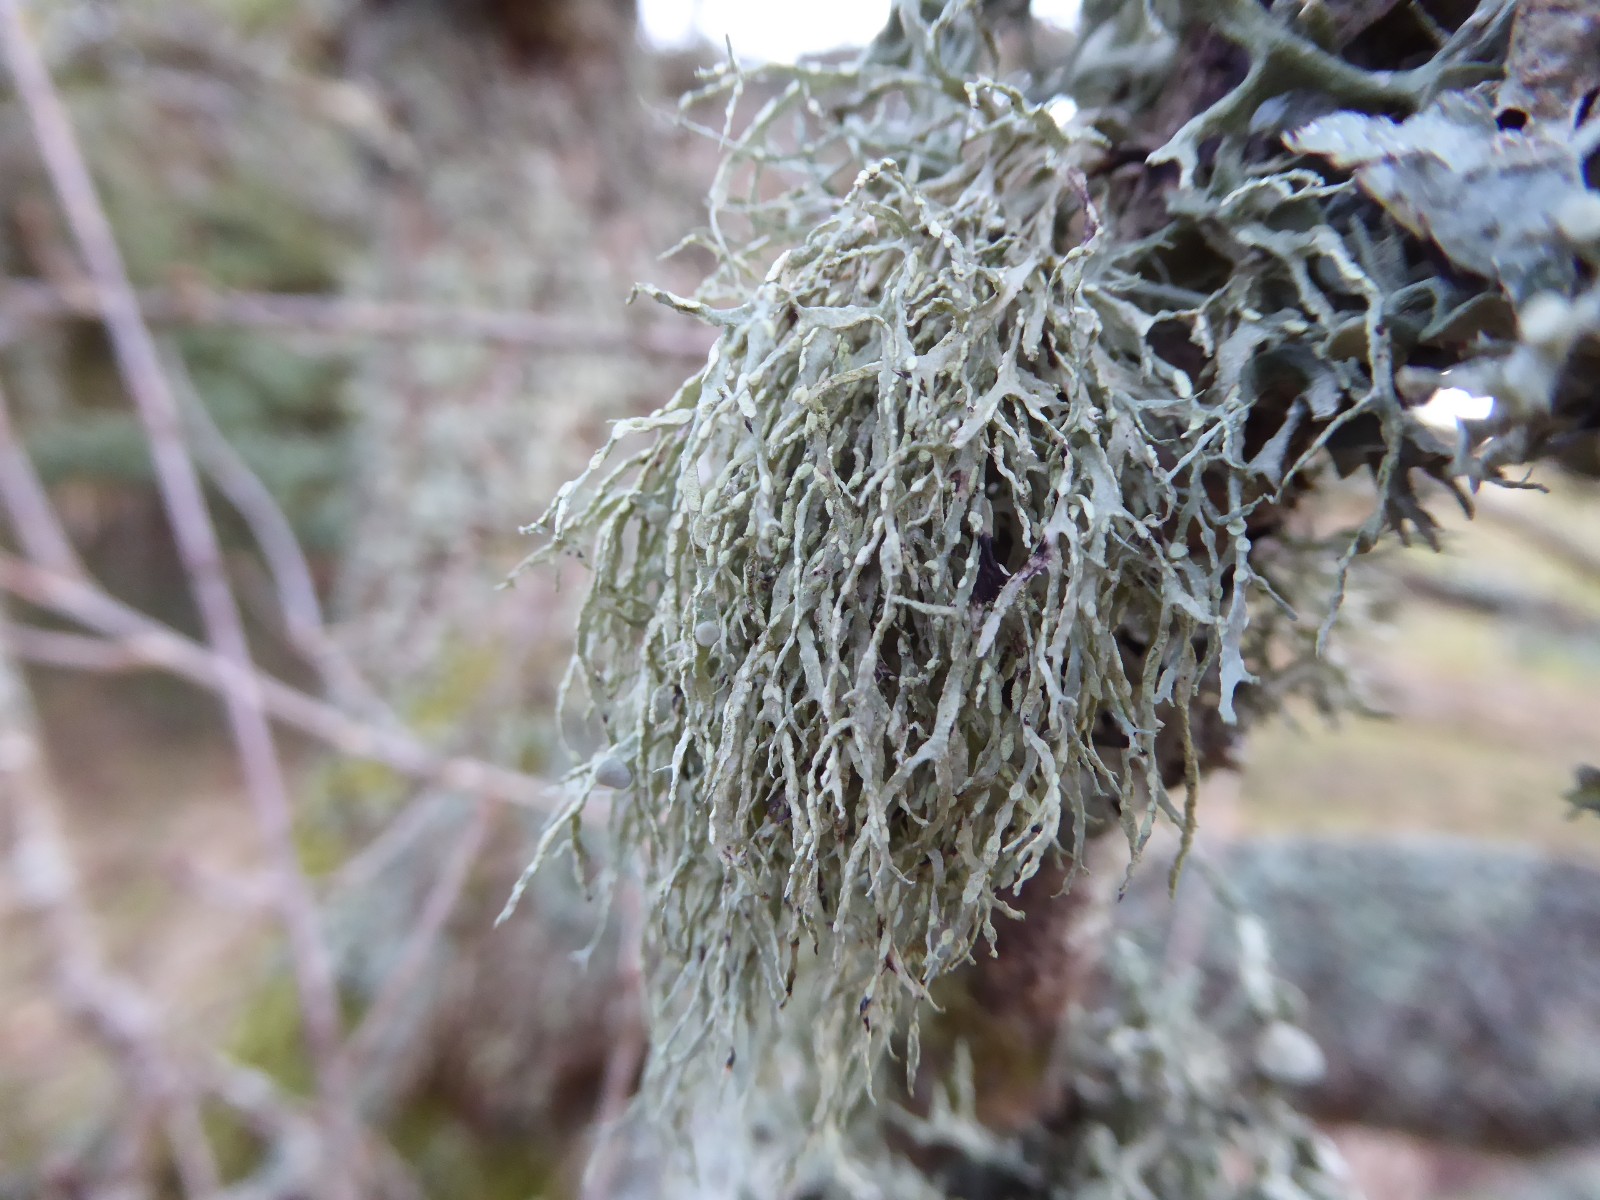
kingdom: Fungi
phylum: Ascomycota
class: Lecanoromycetes
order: Lecanorales
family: Ramalinaceae
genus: Ramalina
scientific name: Ramalina farinacea
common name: melet grenlav
